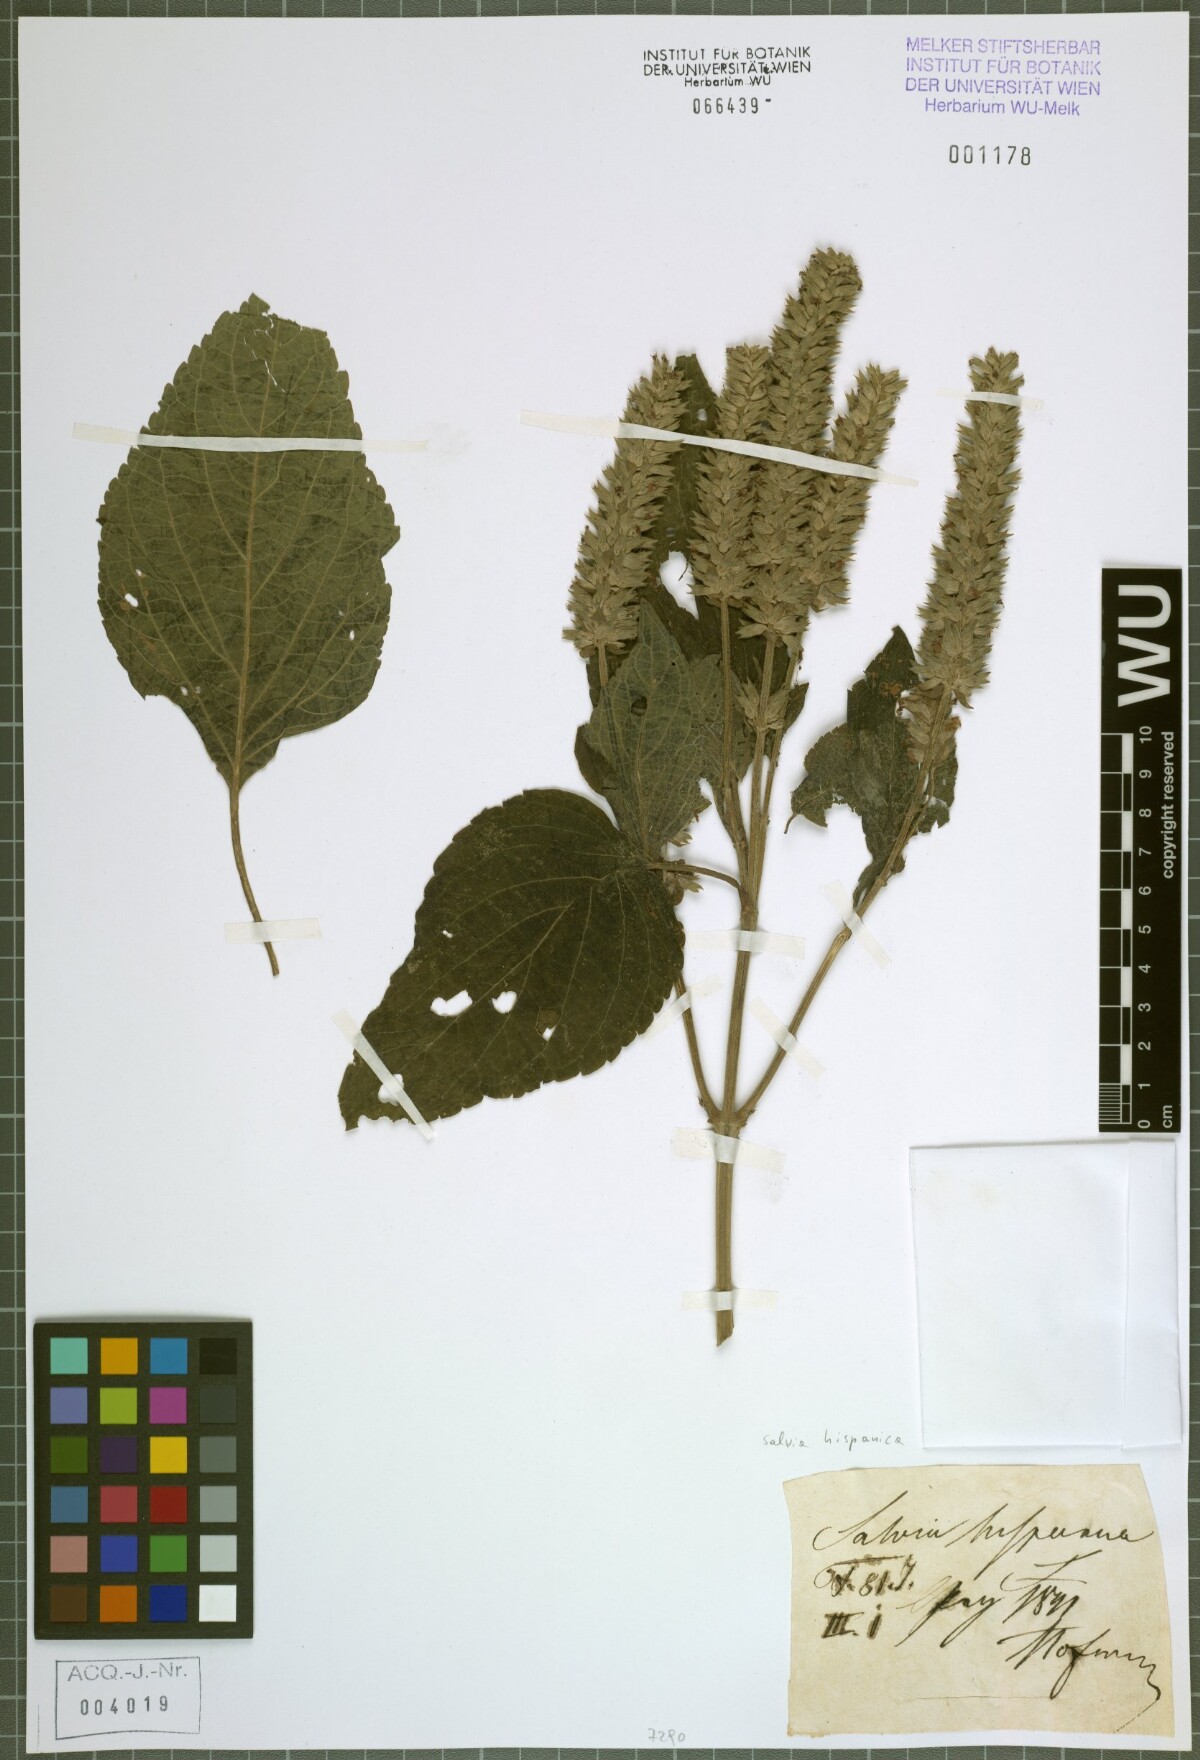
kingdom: Plantae
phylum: Tracheophyta
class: Magnoliopsida
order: Lamiales
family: Lamiaceae
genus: Salvia
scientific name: Salvia hispanica
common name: Chia
